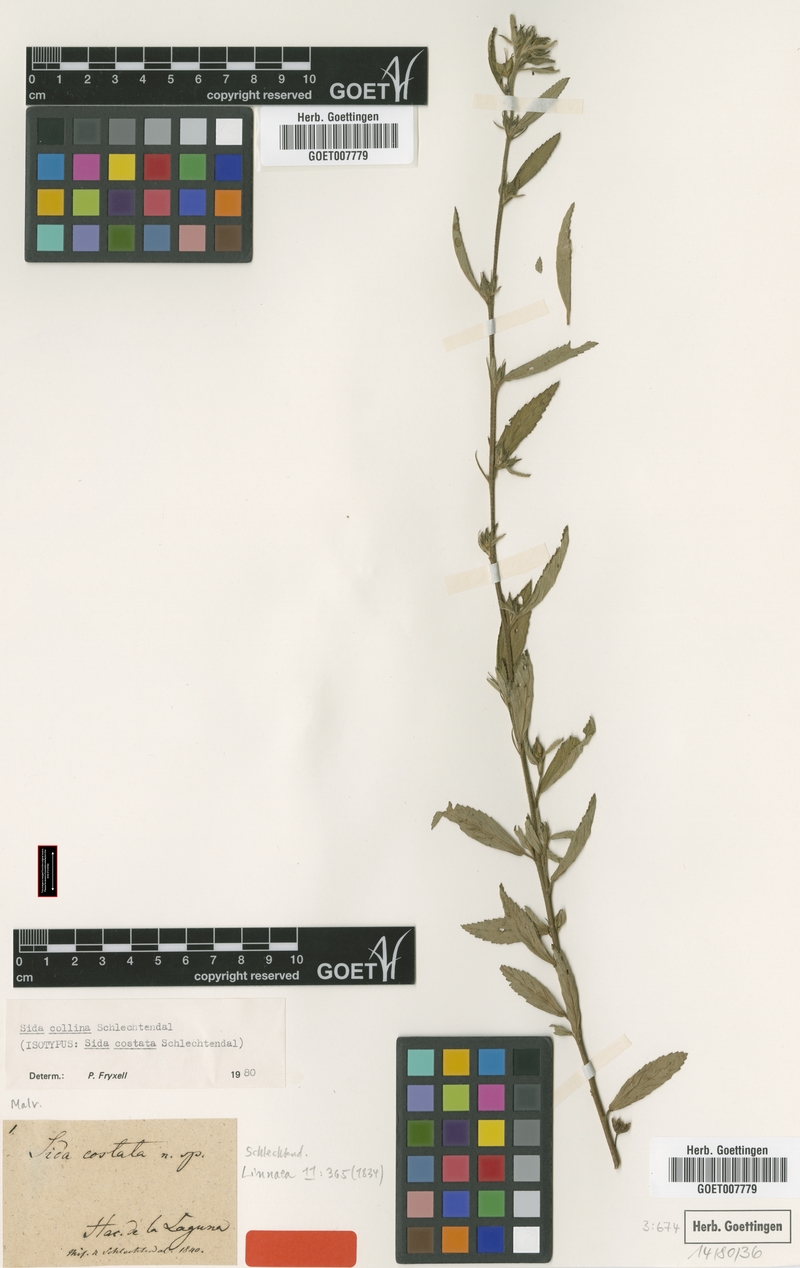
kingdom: Plantae
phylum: Tracheophyta
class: Magnoliopsida
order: Malvales
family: Malvaceae
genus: Sida
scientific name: Sida collina
